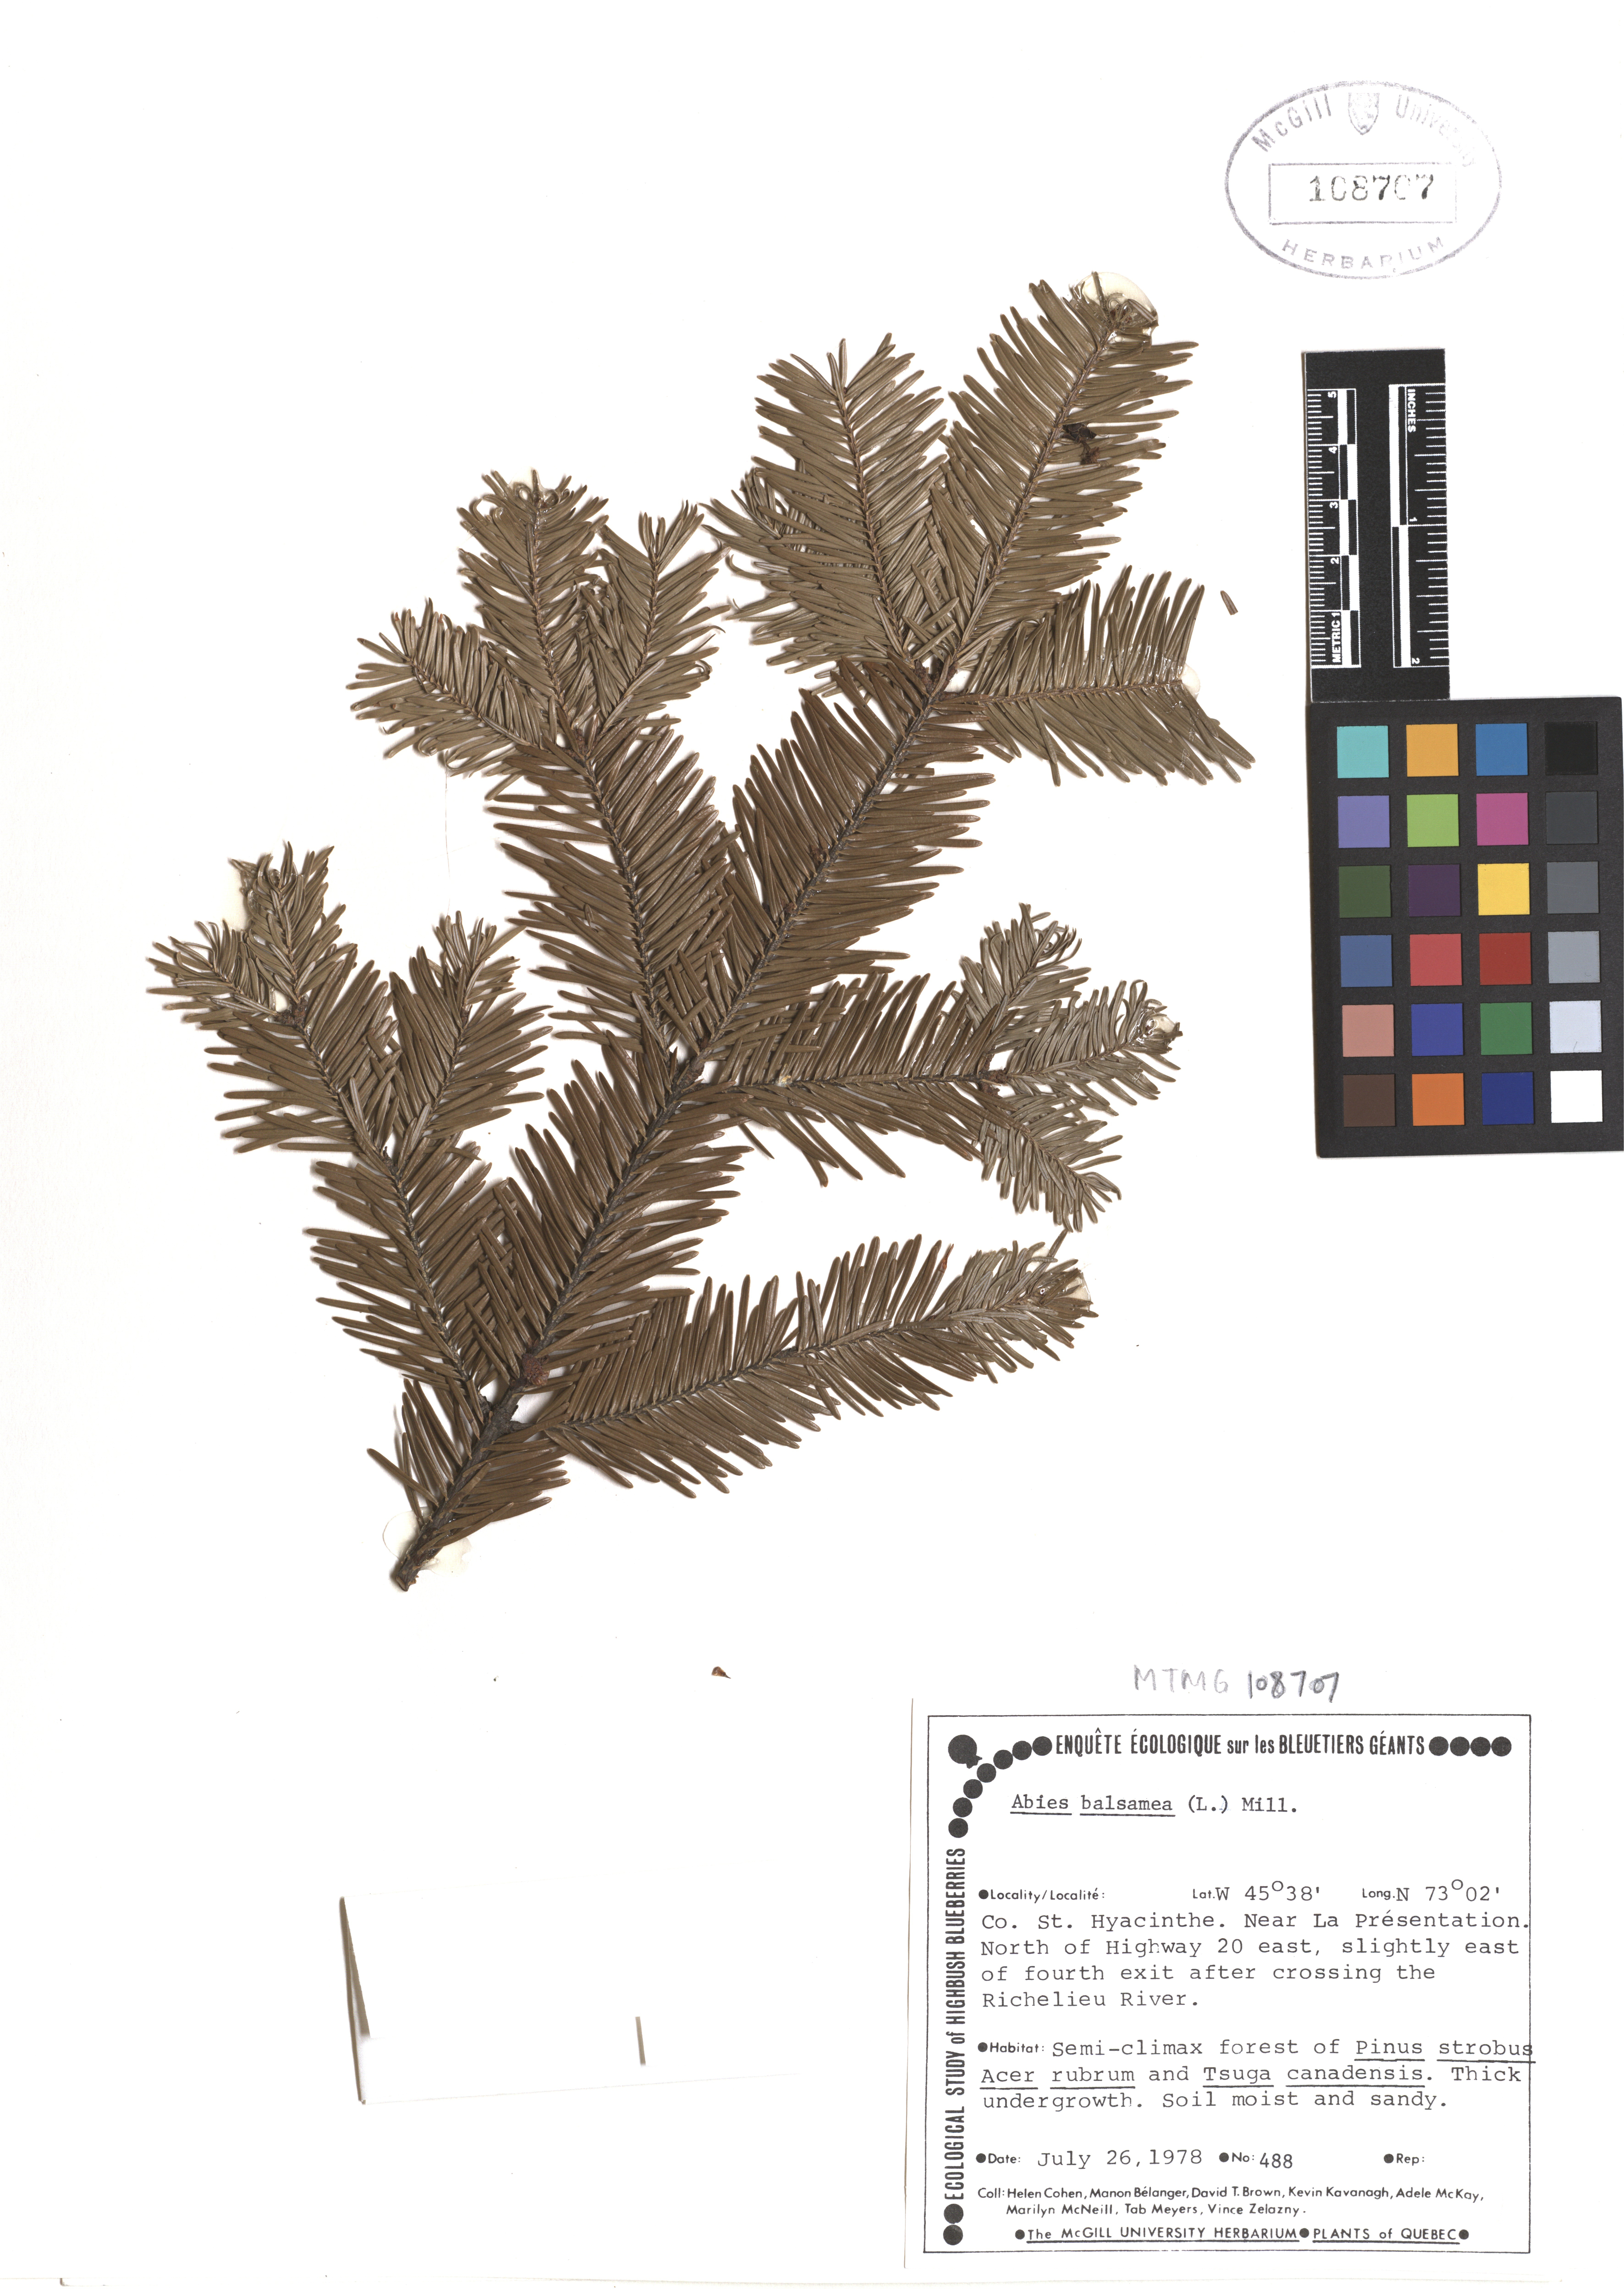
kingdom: Plantae
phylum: Tracheophyta
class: Pinopsida
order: Pinales
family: Pinaceae
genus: Abies
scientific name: Abies balsamea
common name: Balsam fir
